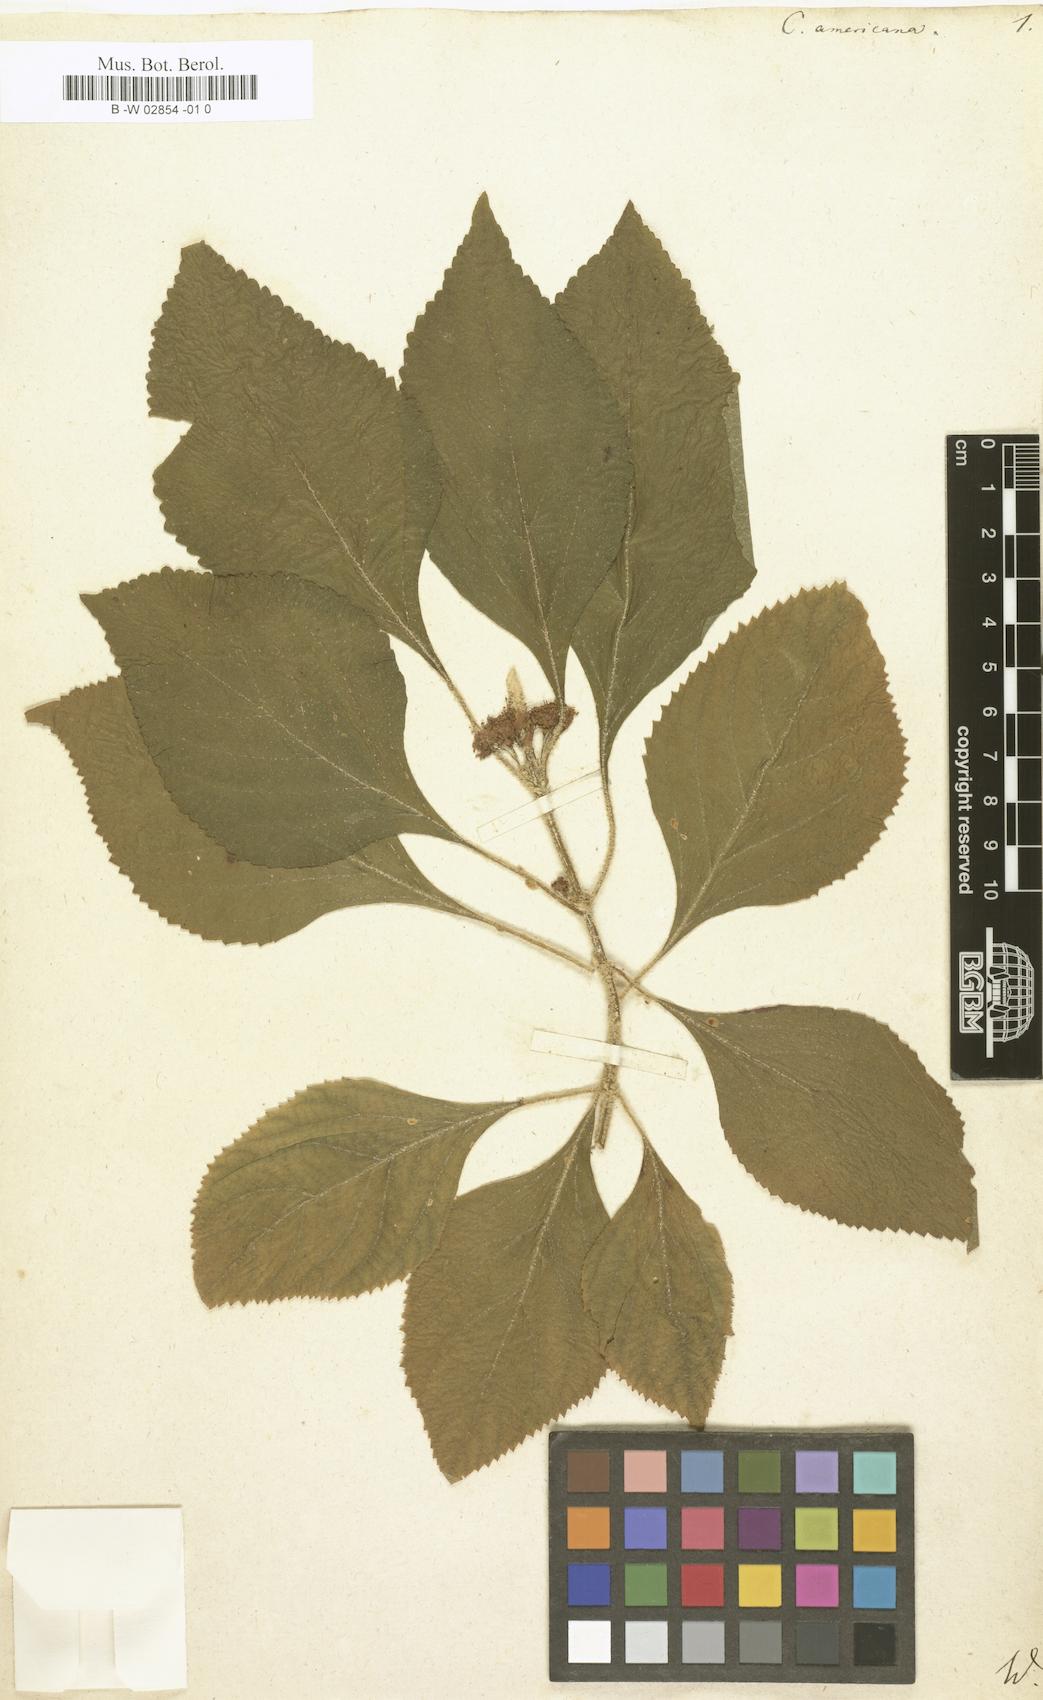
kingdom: Plantae
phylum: Tracheophyta
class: Magnoliopsida
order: Lamiales
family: Lamiaceae
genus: Callicarpa
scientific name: Callicarpa americana
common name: American beautyberry
